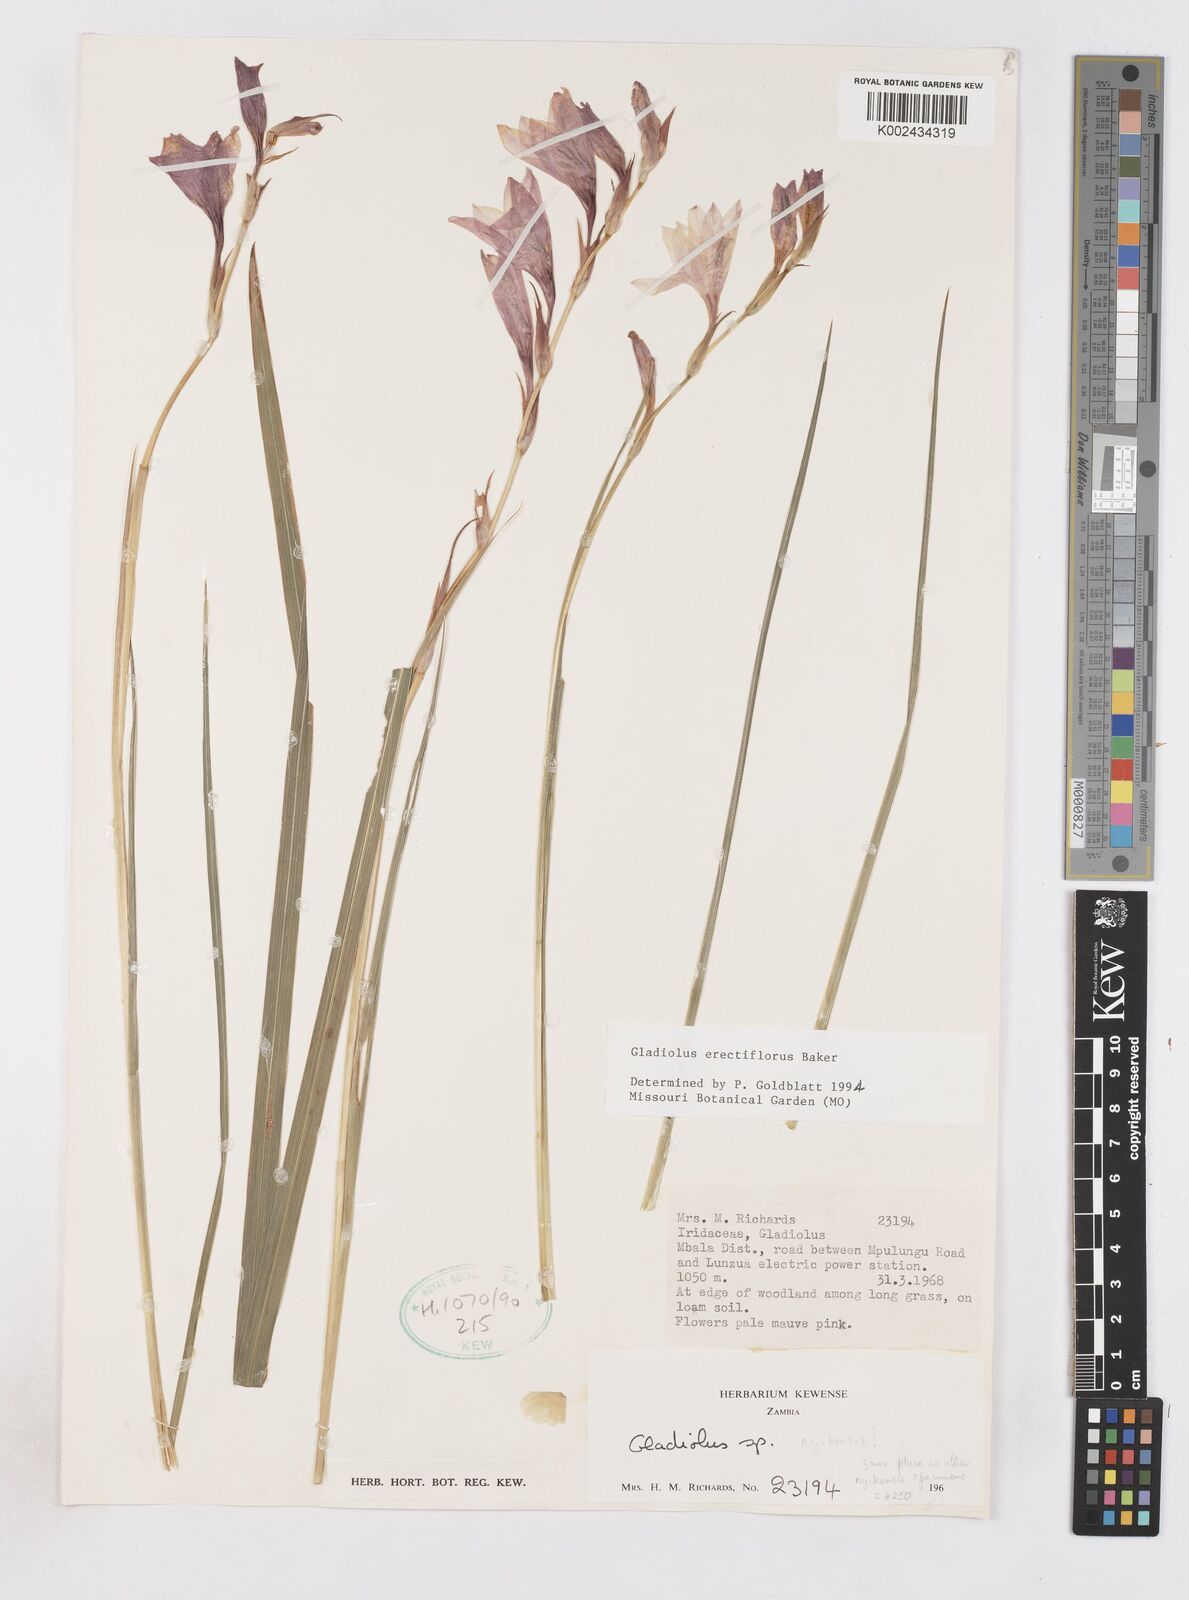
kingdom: Plantae
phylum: Tracheophyta
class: Liliopsida
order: Asparagales
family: Iridaceae
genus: Gladiolus
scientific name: Gladiolus erectiflorus
